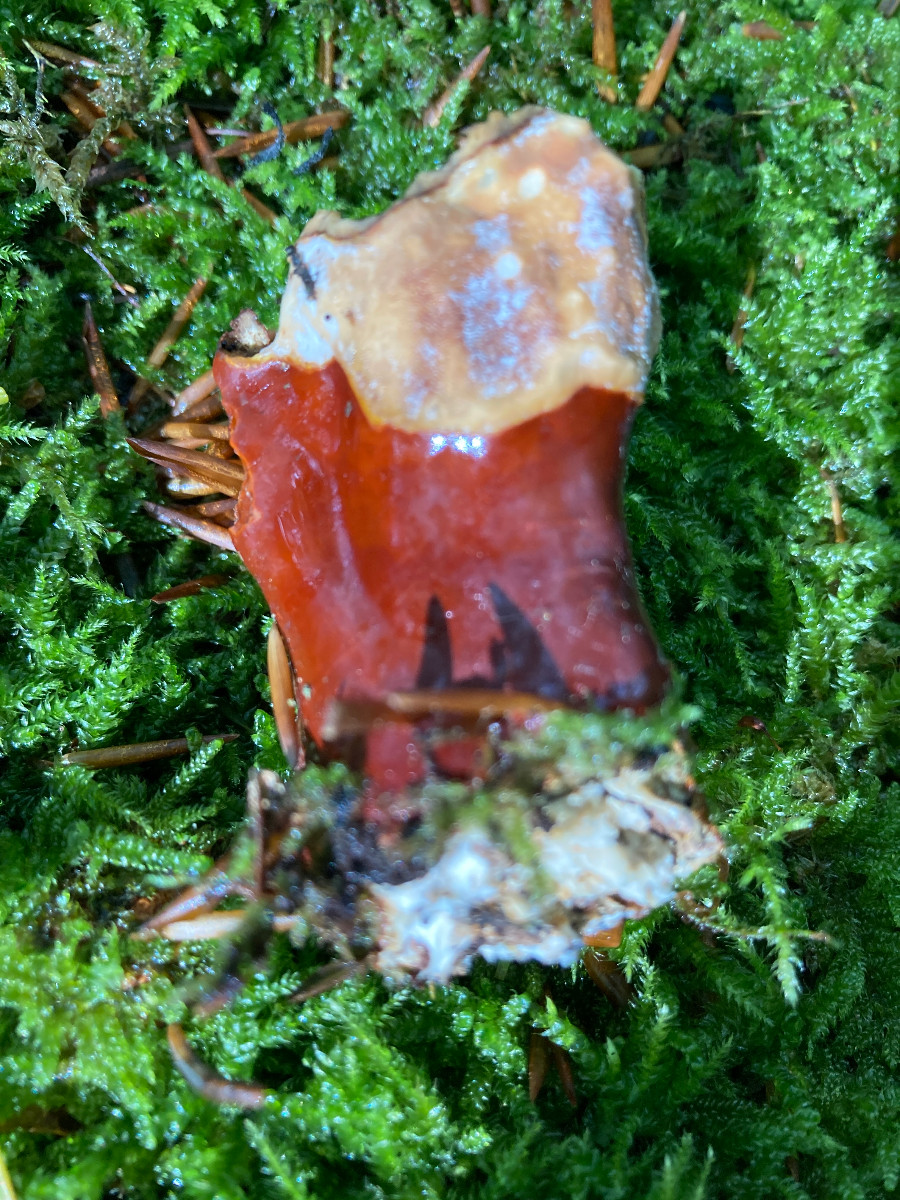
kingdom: Fungi
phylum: Basidiomycota
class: Agaricomycetes
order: Polyporales
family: Polyporaceae
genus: Ganoderma
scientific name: Ganoderma lucidum
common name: skinnende lakporesvamp
